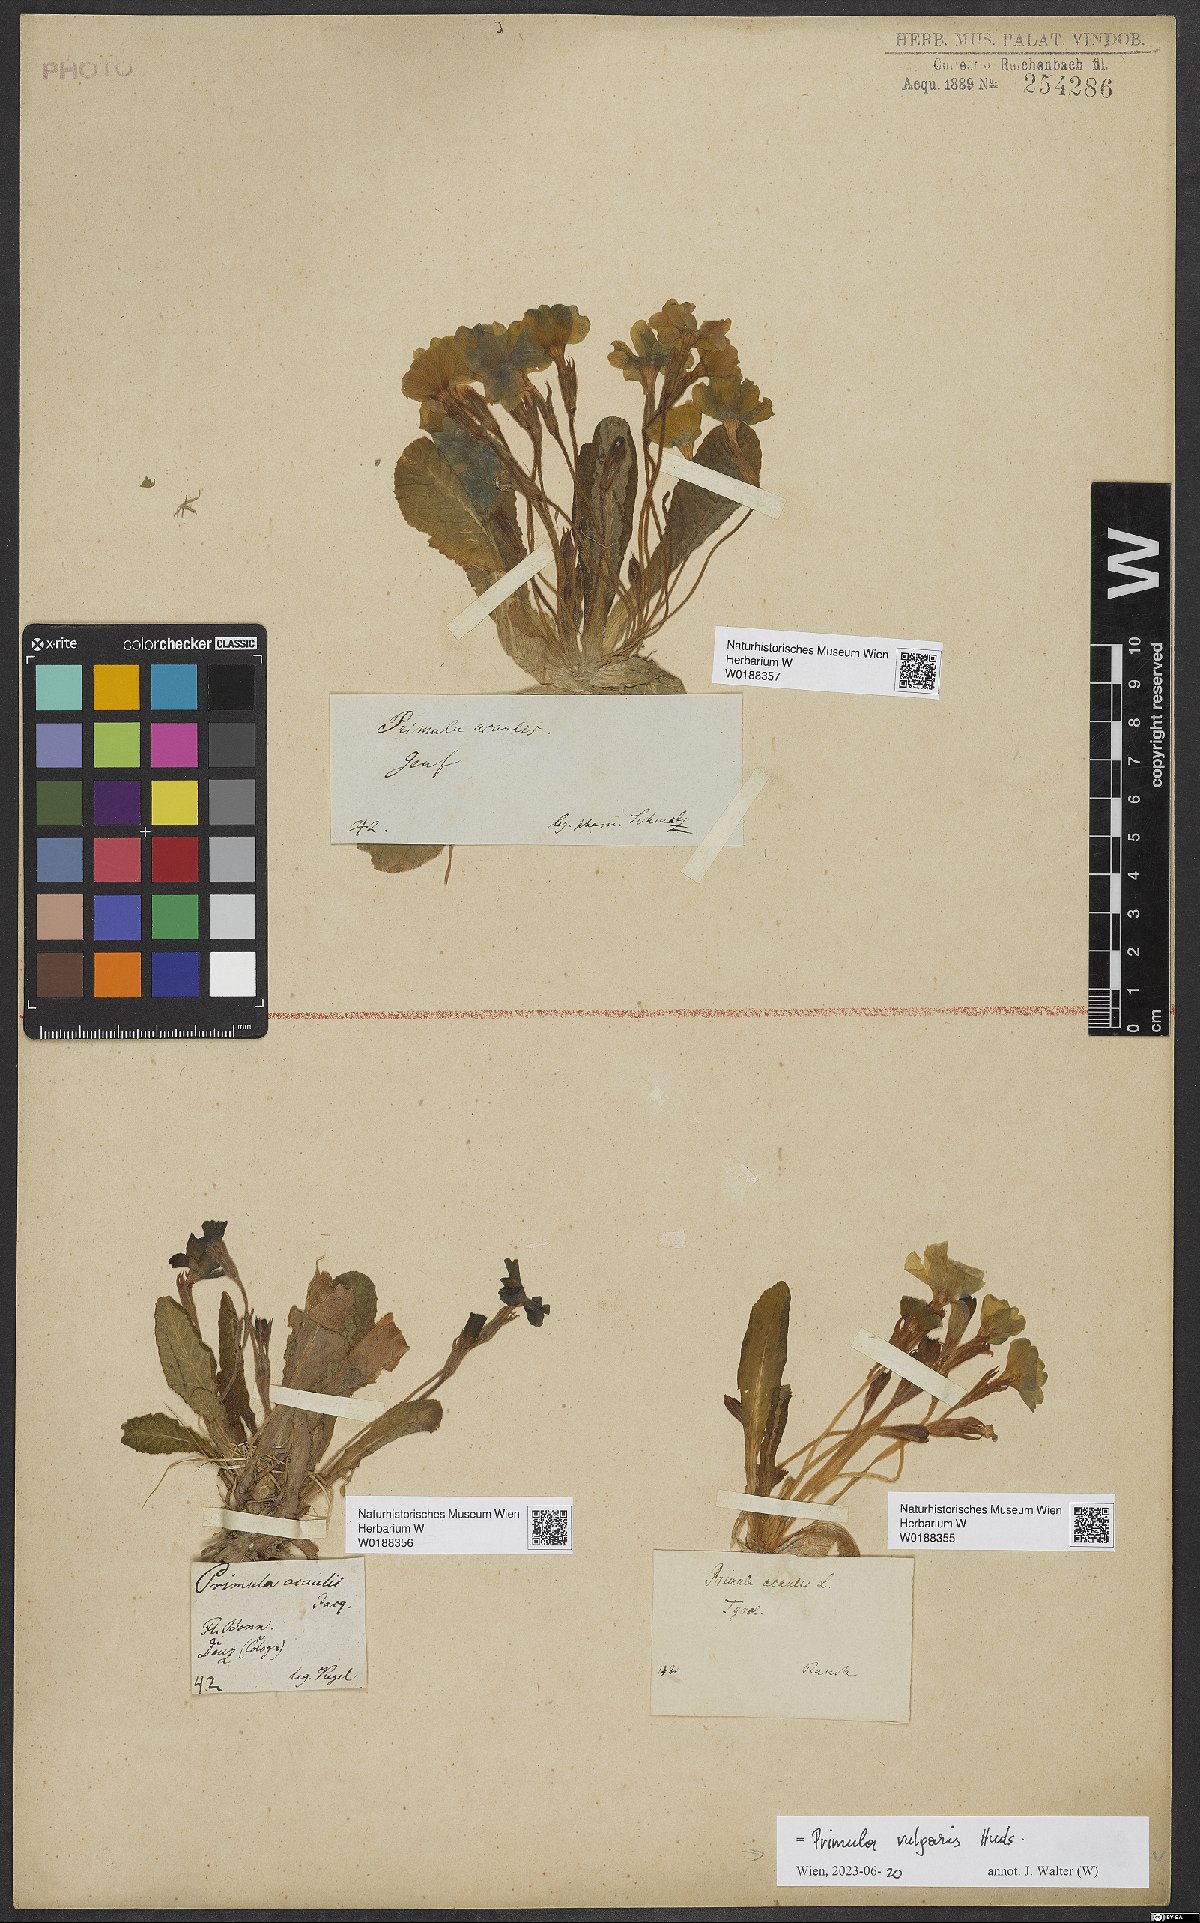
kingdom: Plantae
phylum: Tracheophyta
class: Magnoliopsida
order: Ericales
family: Primulaceae
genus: Primula
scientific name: Primula vulgaris
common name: Primrose
